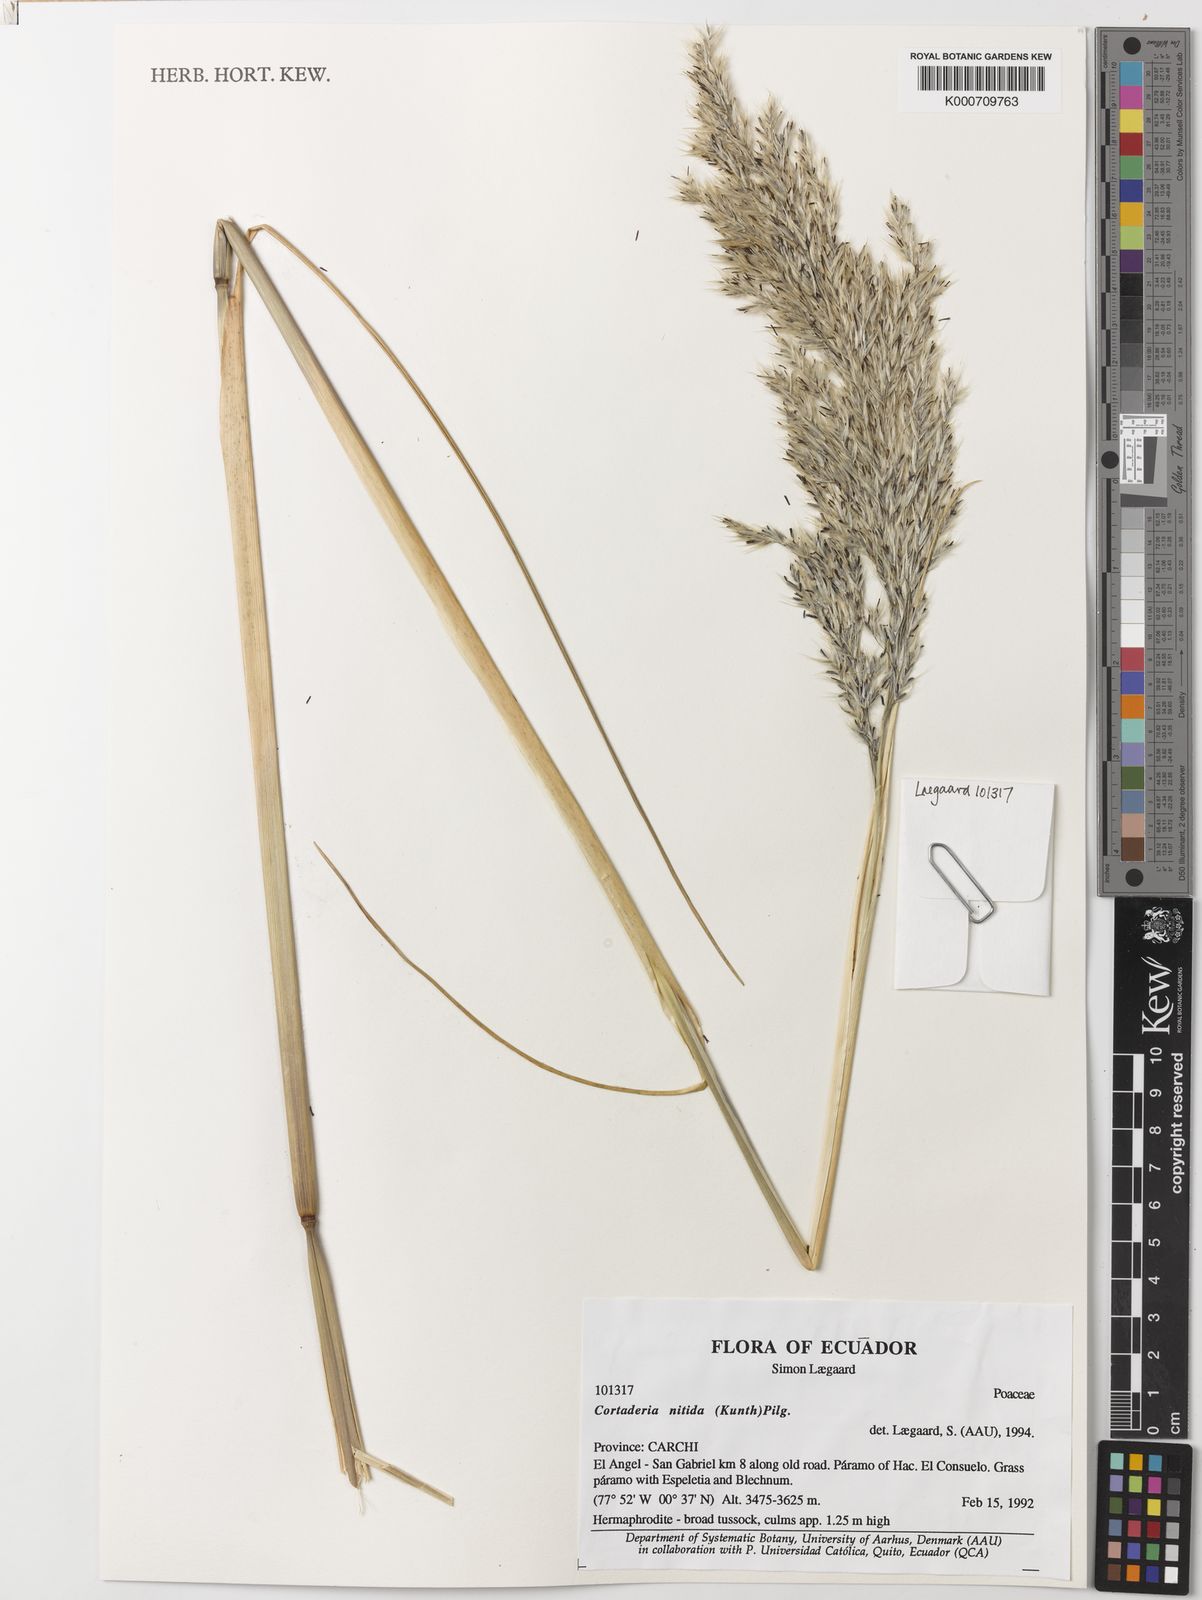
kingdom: Plantae
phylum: Tracheophyta
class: Liliopsida
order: Poales
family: Poaceae
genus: Cortaderia
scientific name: Cortaderia nitida
